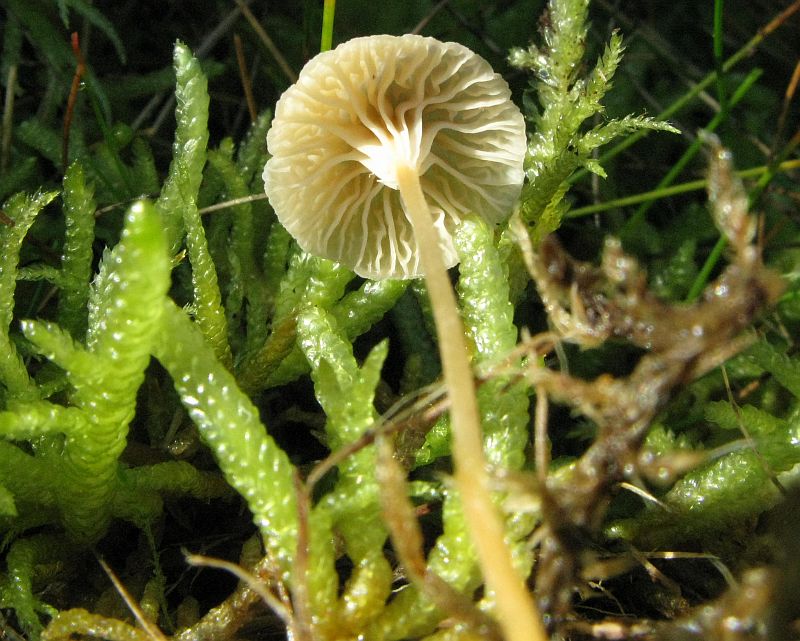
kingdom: Fungi
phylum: Basidiomycota
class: Agaricomycetes
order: Hymenochaetales
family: Rickenellaceae
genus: Rickenella
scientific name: Rickenella fibula
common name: orange mosnavlehat
